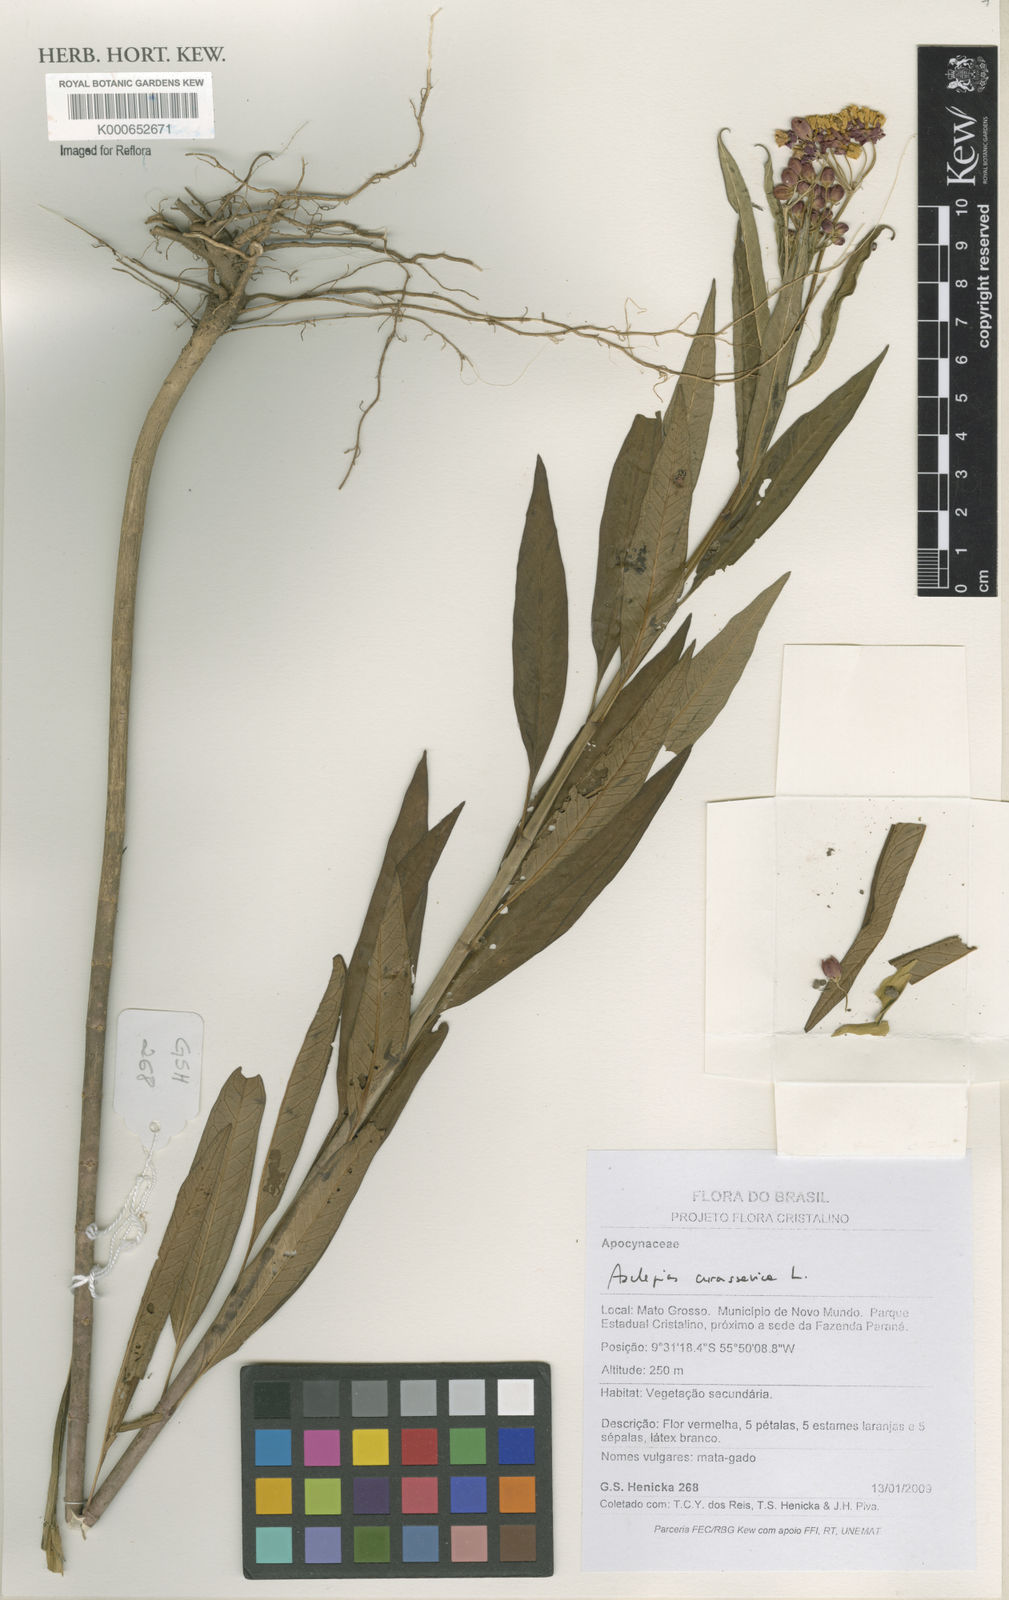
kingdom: Plantae
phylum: Tracheophyta
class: Magnoliopsida
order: Gentianales
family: Apocynaceae
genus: Asclepias
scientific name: Asclepias curassavica
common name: Bloodflower
